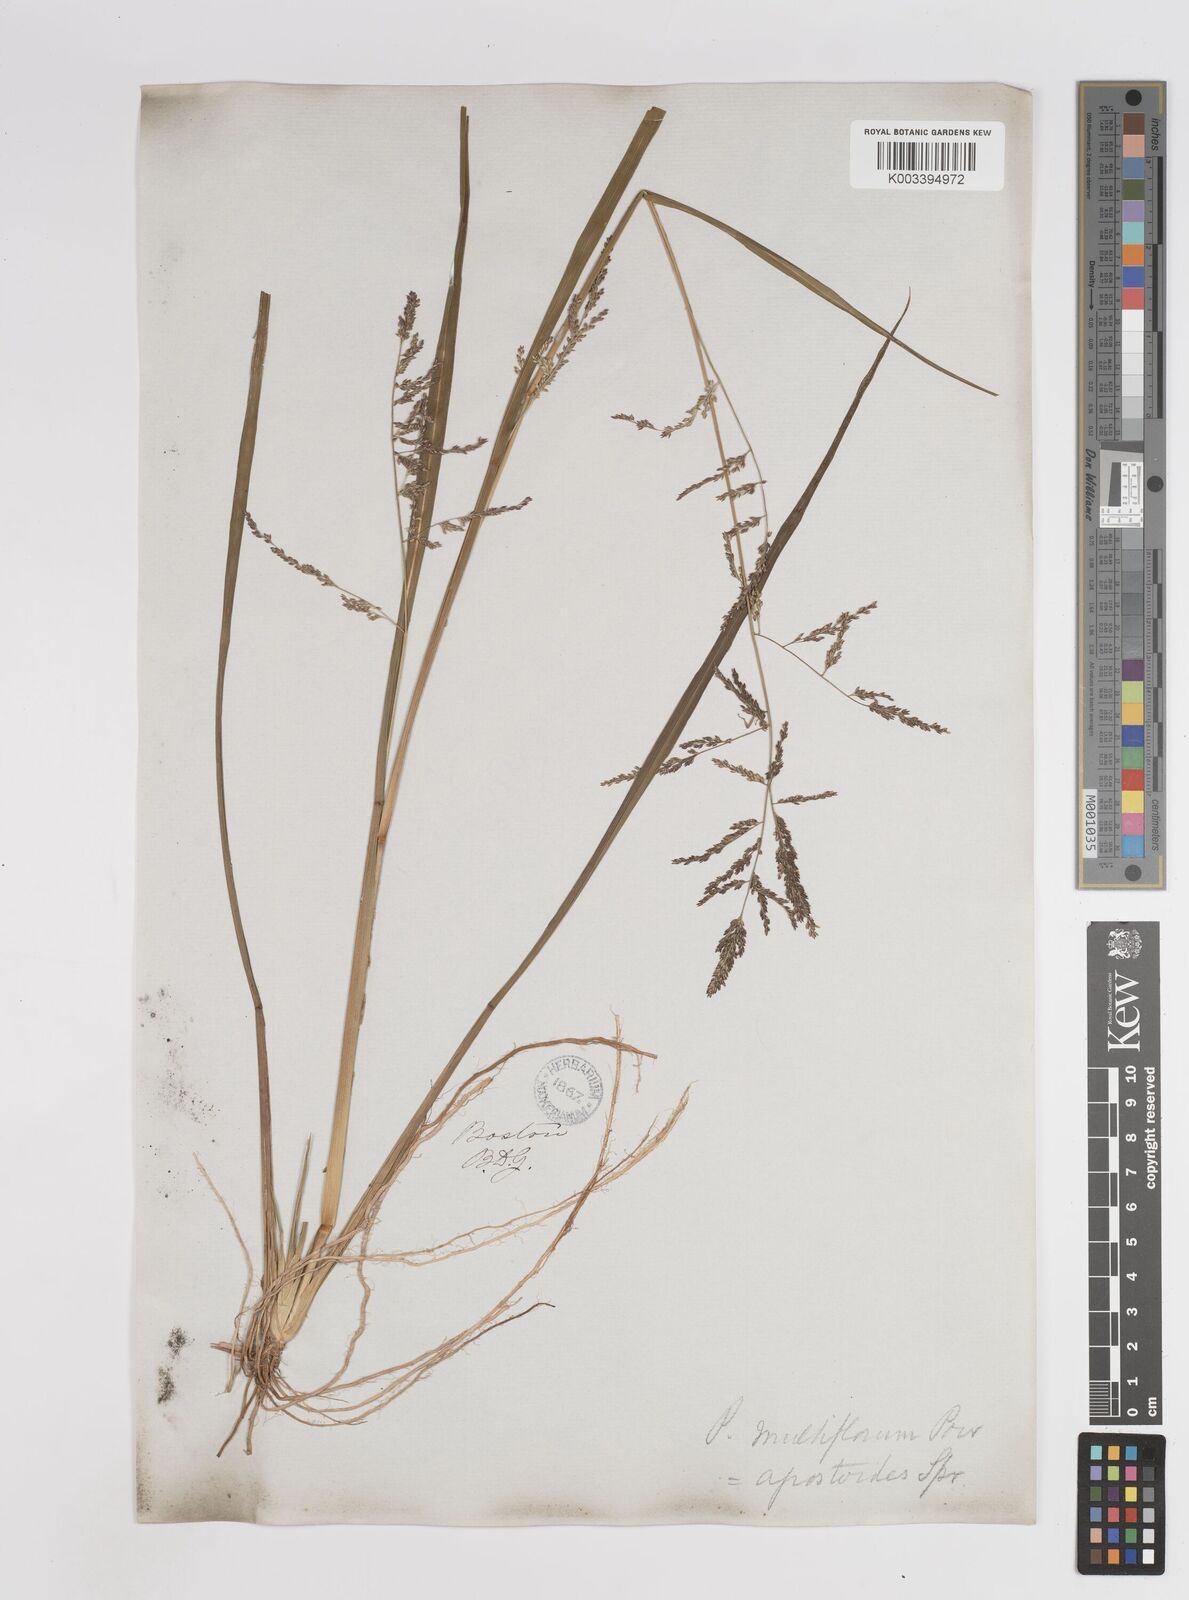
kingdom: Plantae
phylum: Tracheophyta
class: Liliopsida
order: Poales
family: Poaceae
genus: Steinchisma
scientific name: Steinchisma laxum
